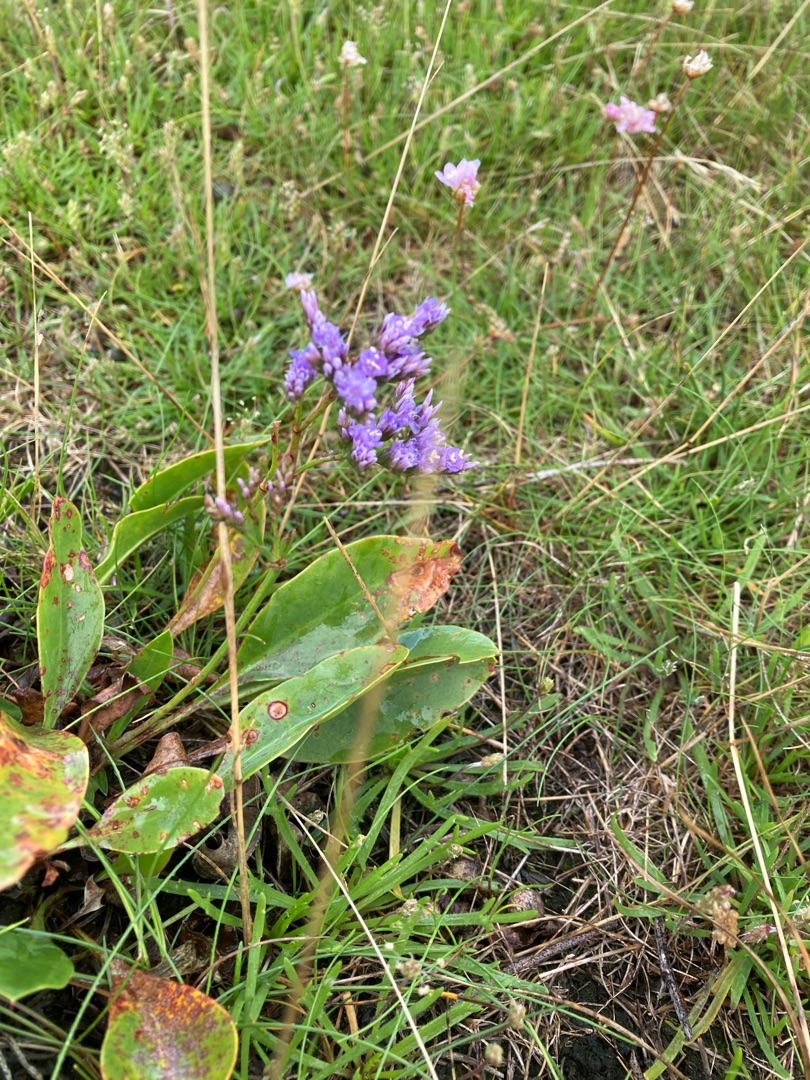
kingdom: Plantae
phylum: Tracheophyta
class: Magnoliopsida
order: Caryophyllales
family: Plumbaginaceae
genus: Limonium
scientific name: Limonium vulgare
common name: Tætblomstret hindebæger
